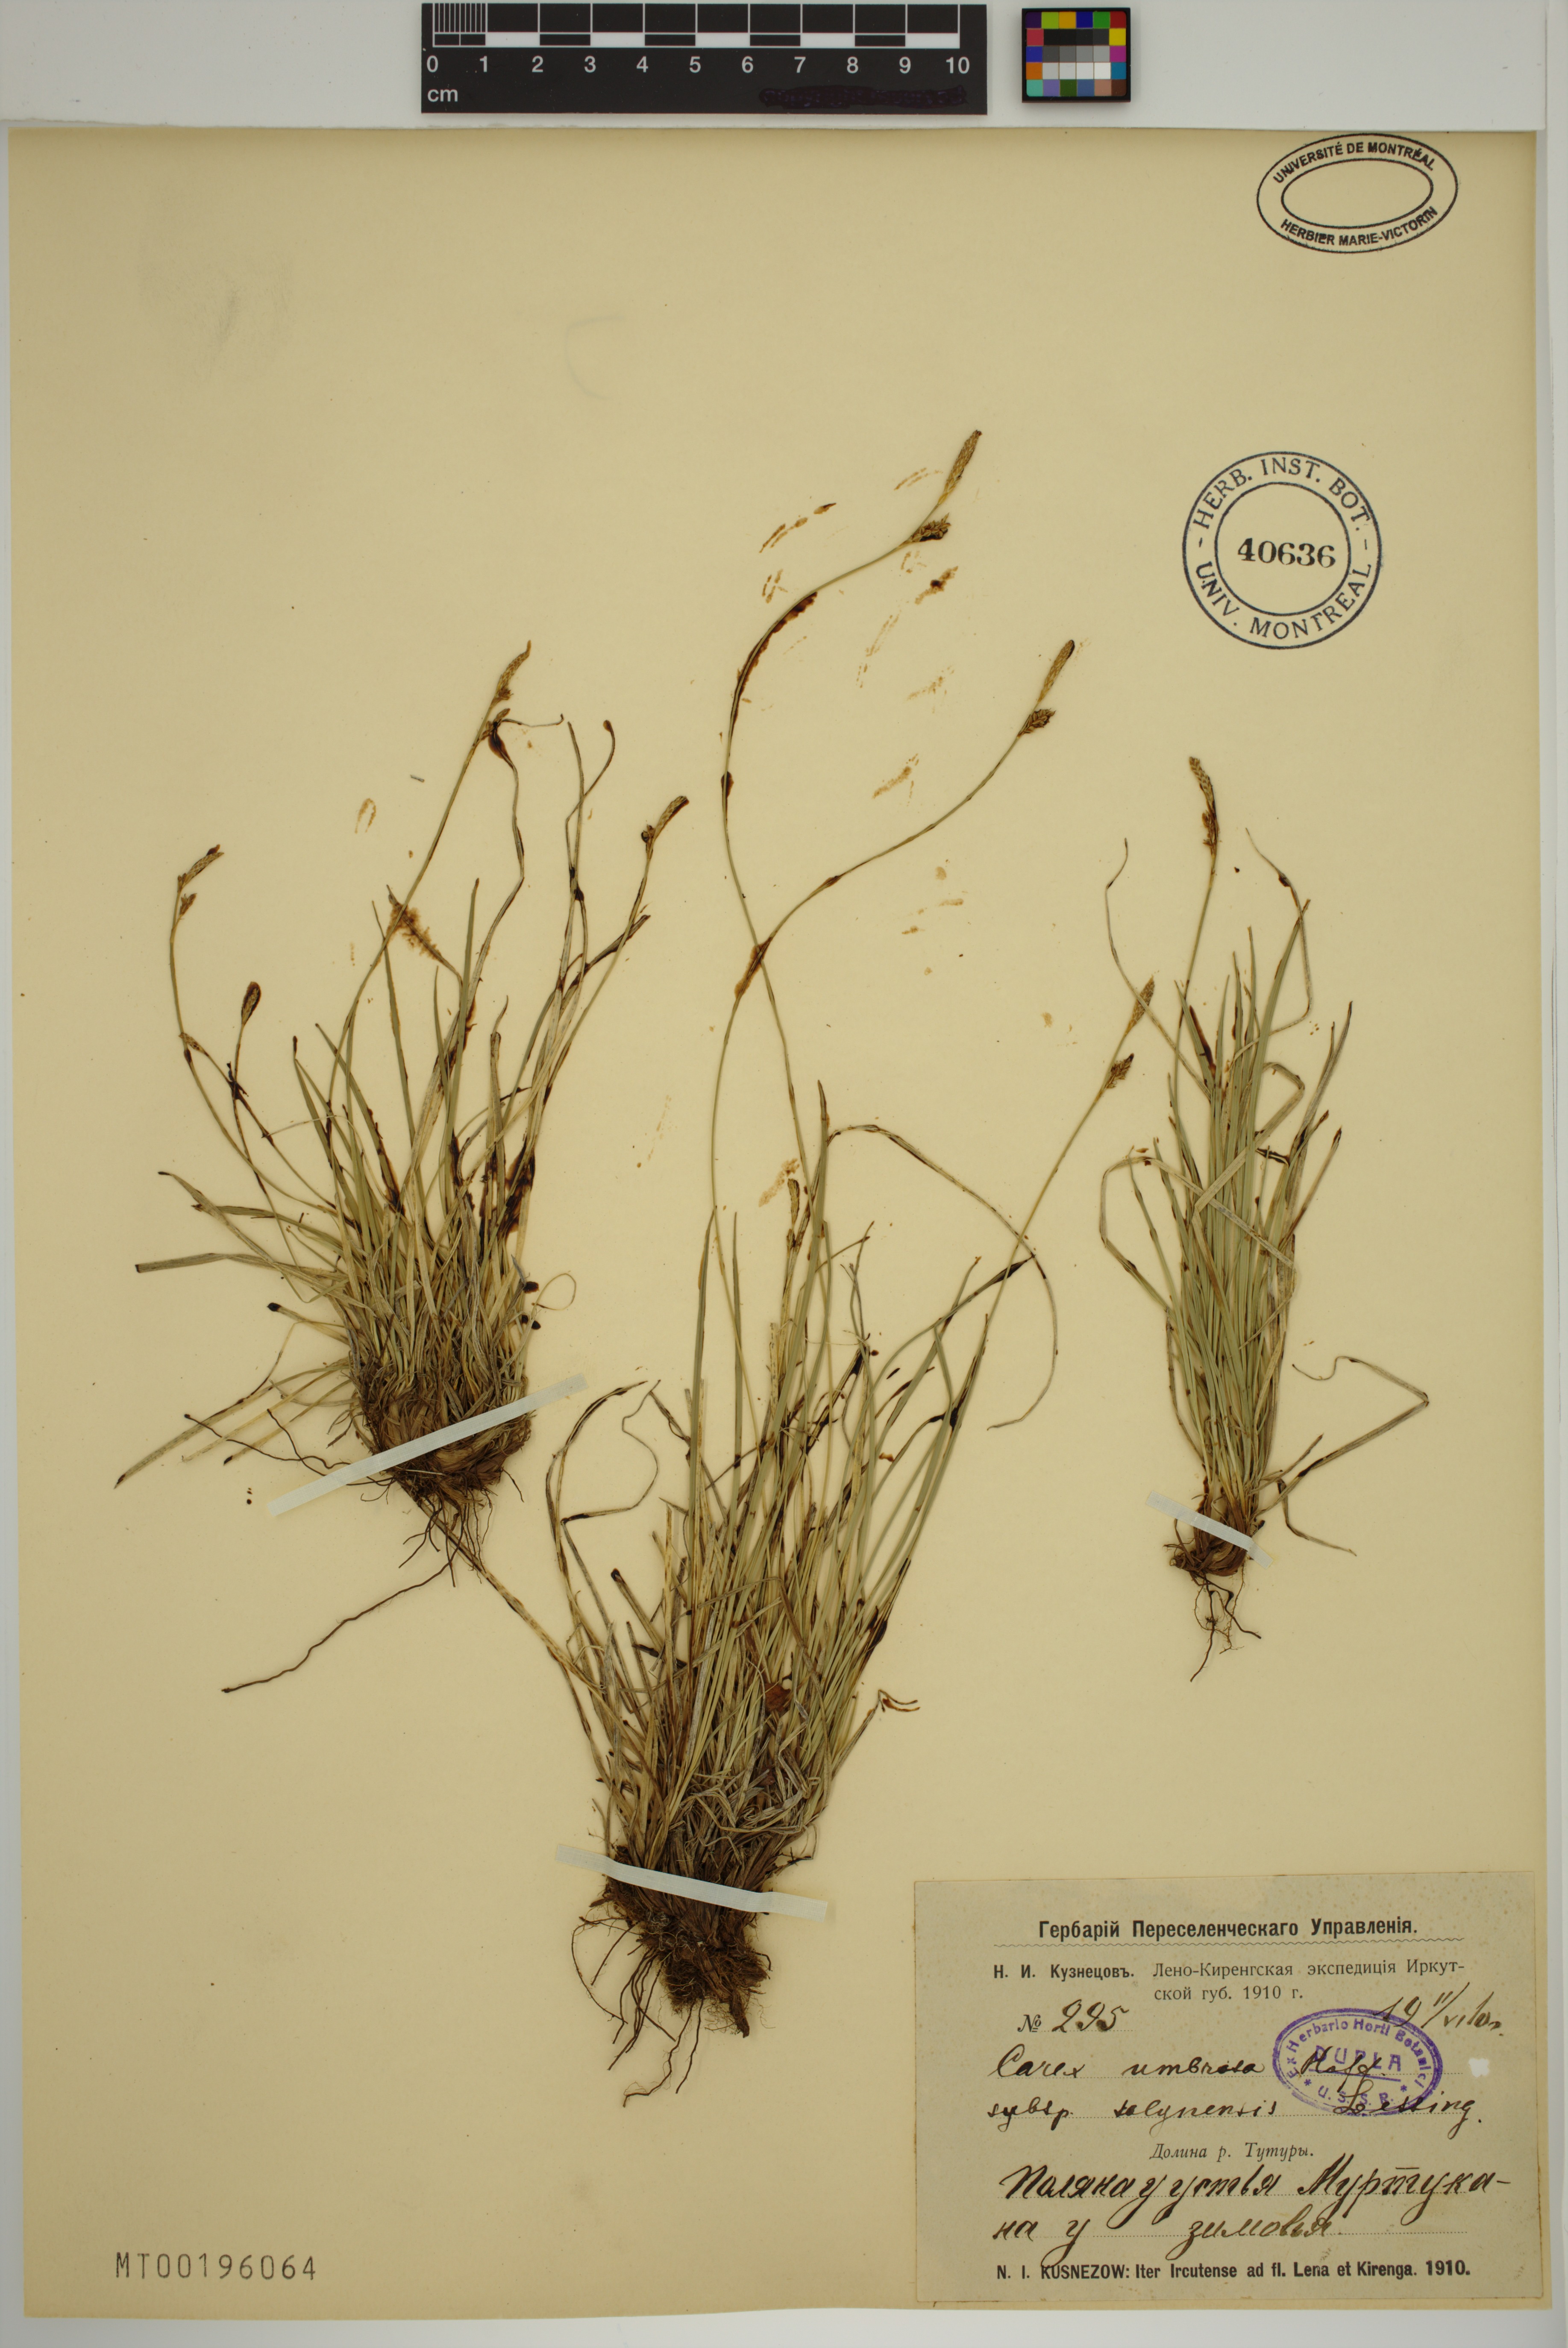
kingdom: Plantae
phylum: Tracheophyta
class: Liliopsida
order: Poales
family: Cyperaceae
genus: Carex
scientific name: Carex umbrosa
